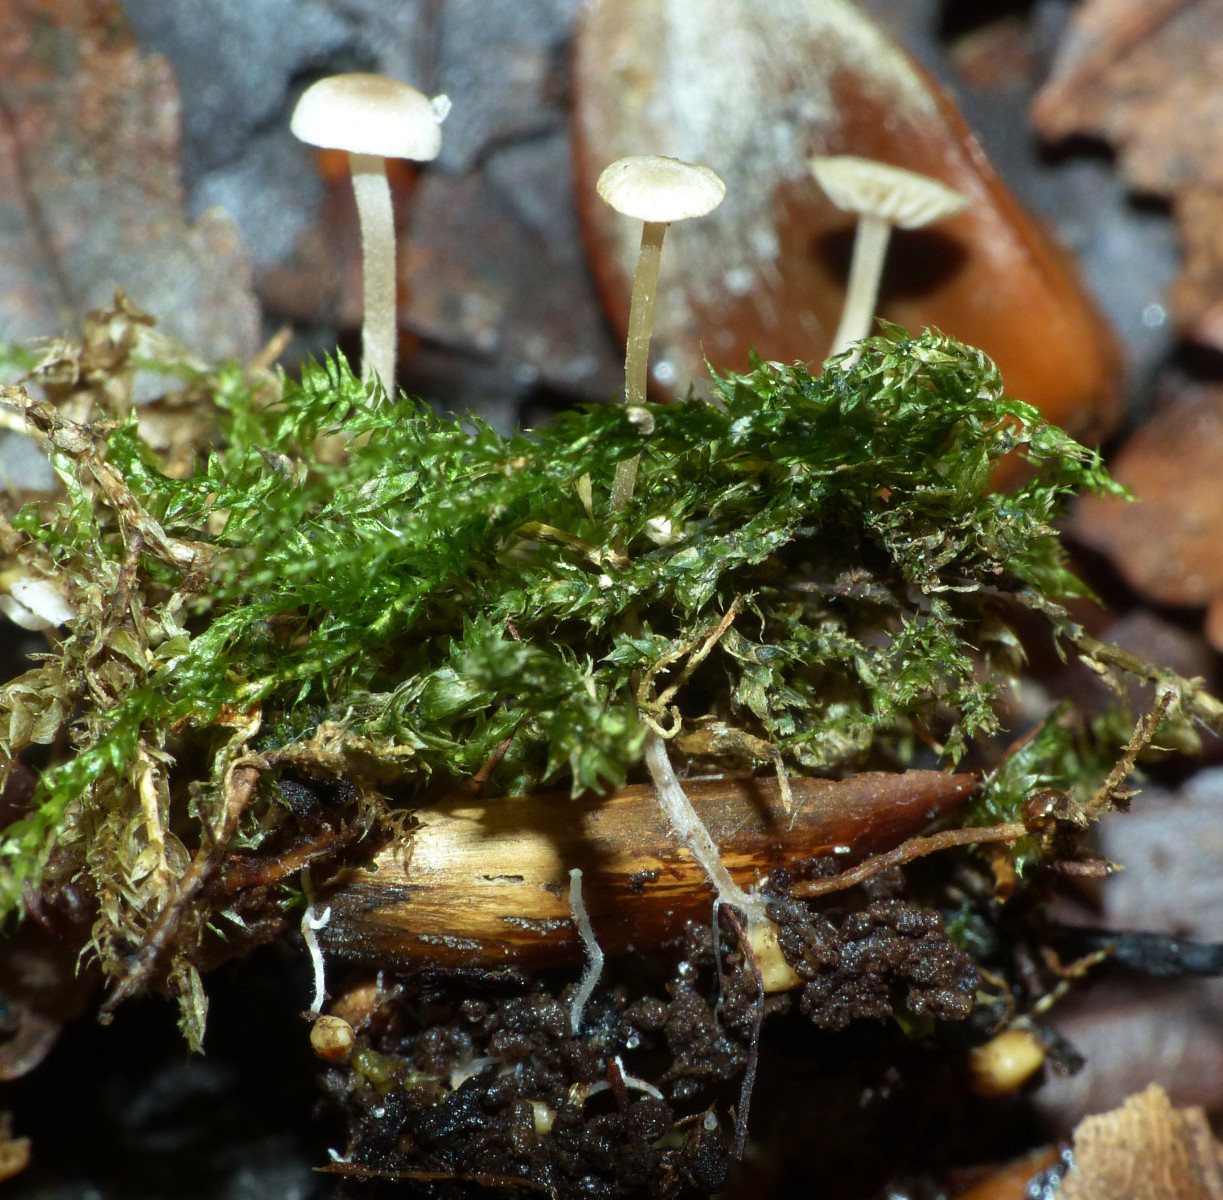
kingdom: Fungi
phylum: Basidiomycota
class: Agaricomycetes
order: Agaricales
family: Tricholomataceae
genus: Collybia
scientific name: Collybia cookei
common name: gulknoldet lighat
